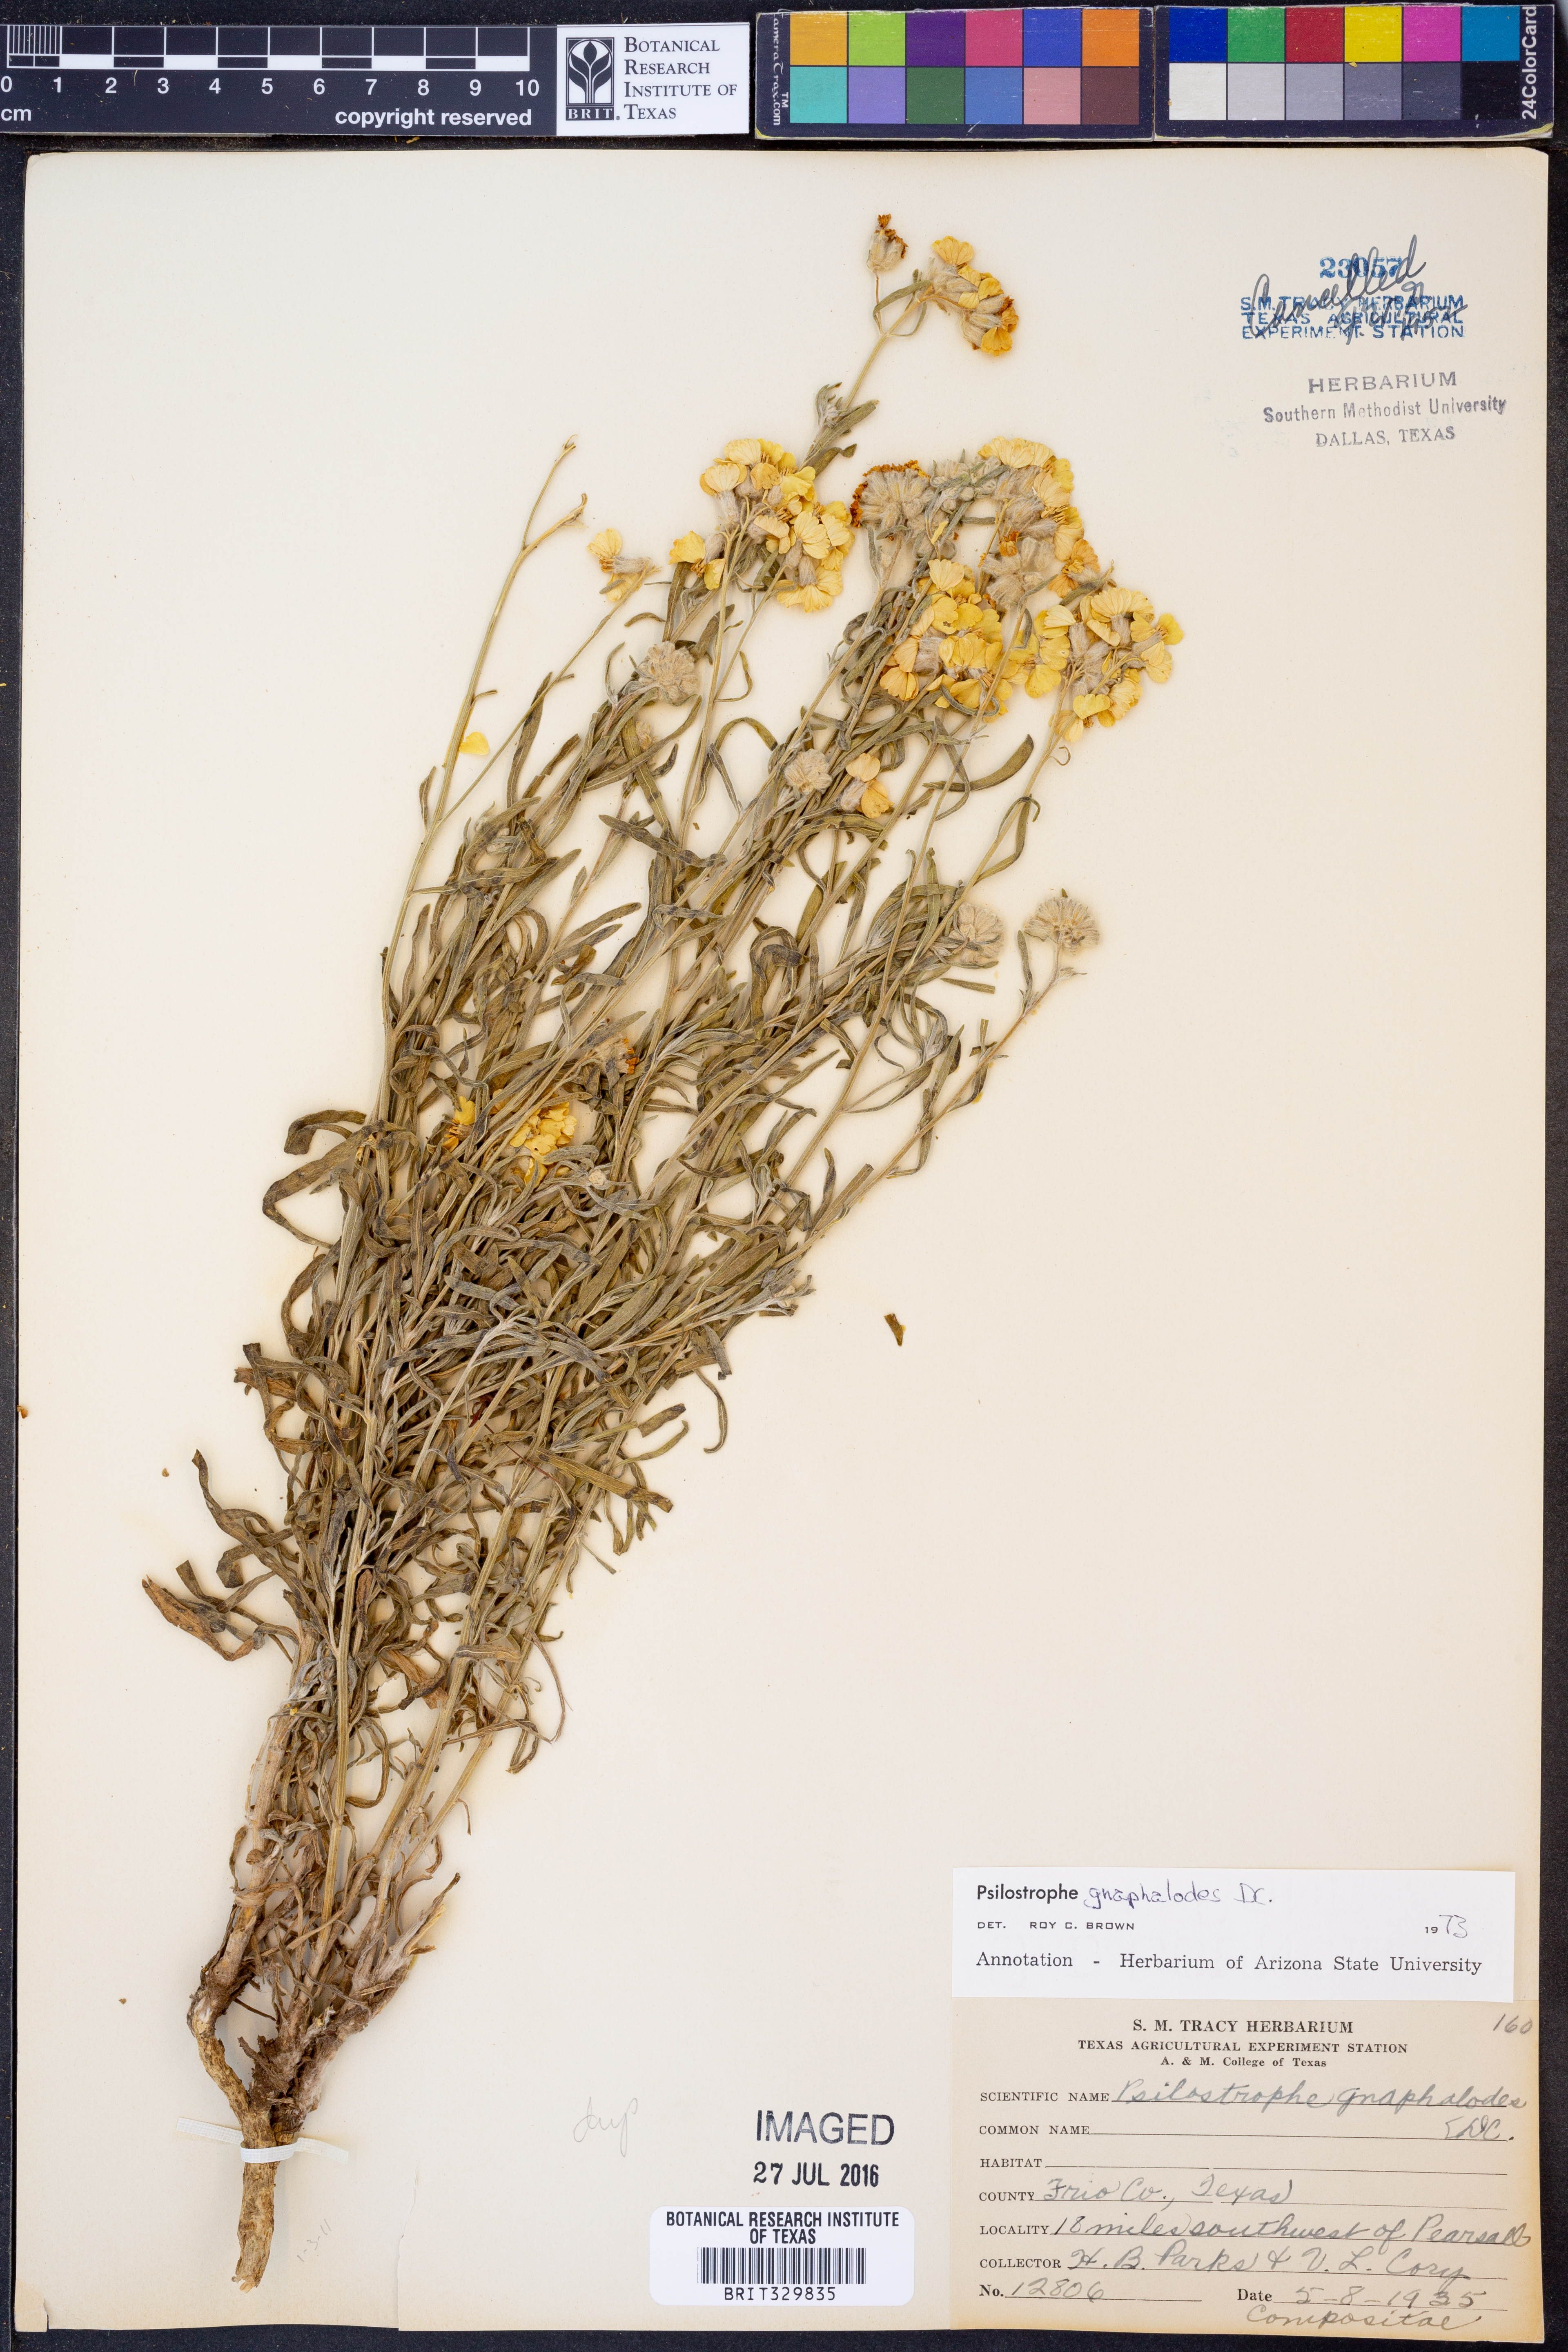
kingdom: Plantae
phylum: Tracheophyta
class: Magnoliopsida
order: Asterales
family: Asteraceae
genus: Psilostrophe
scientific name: Psilostrophe gnaphalioides
